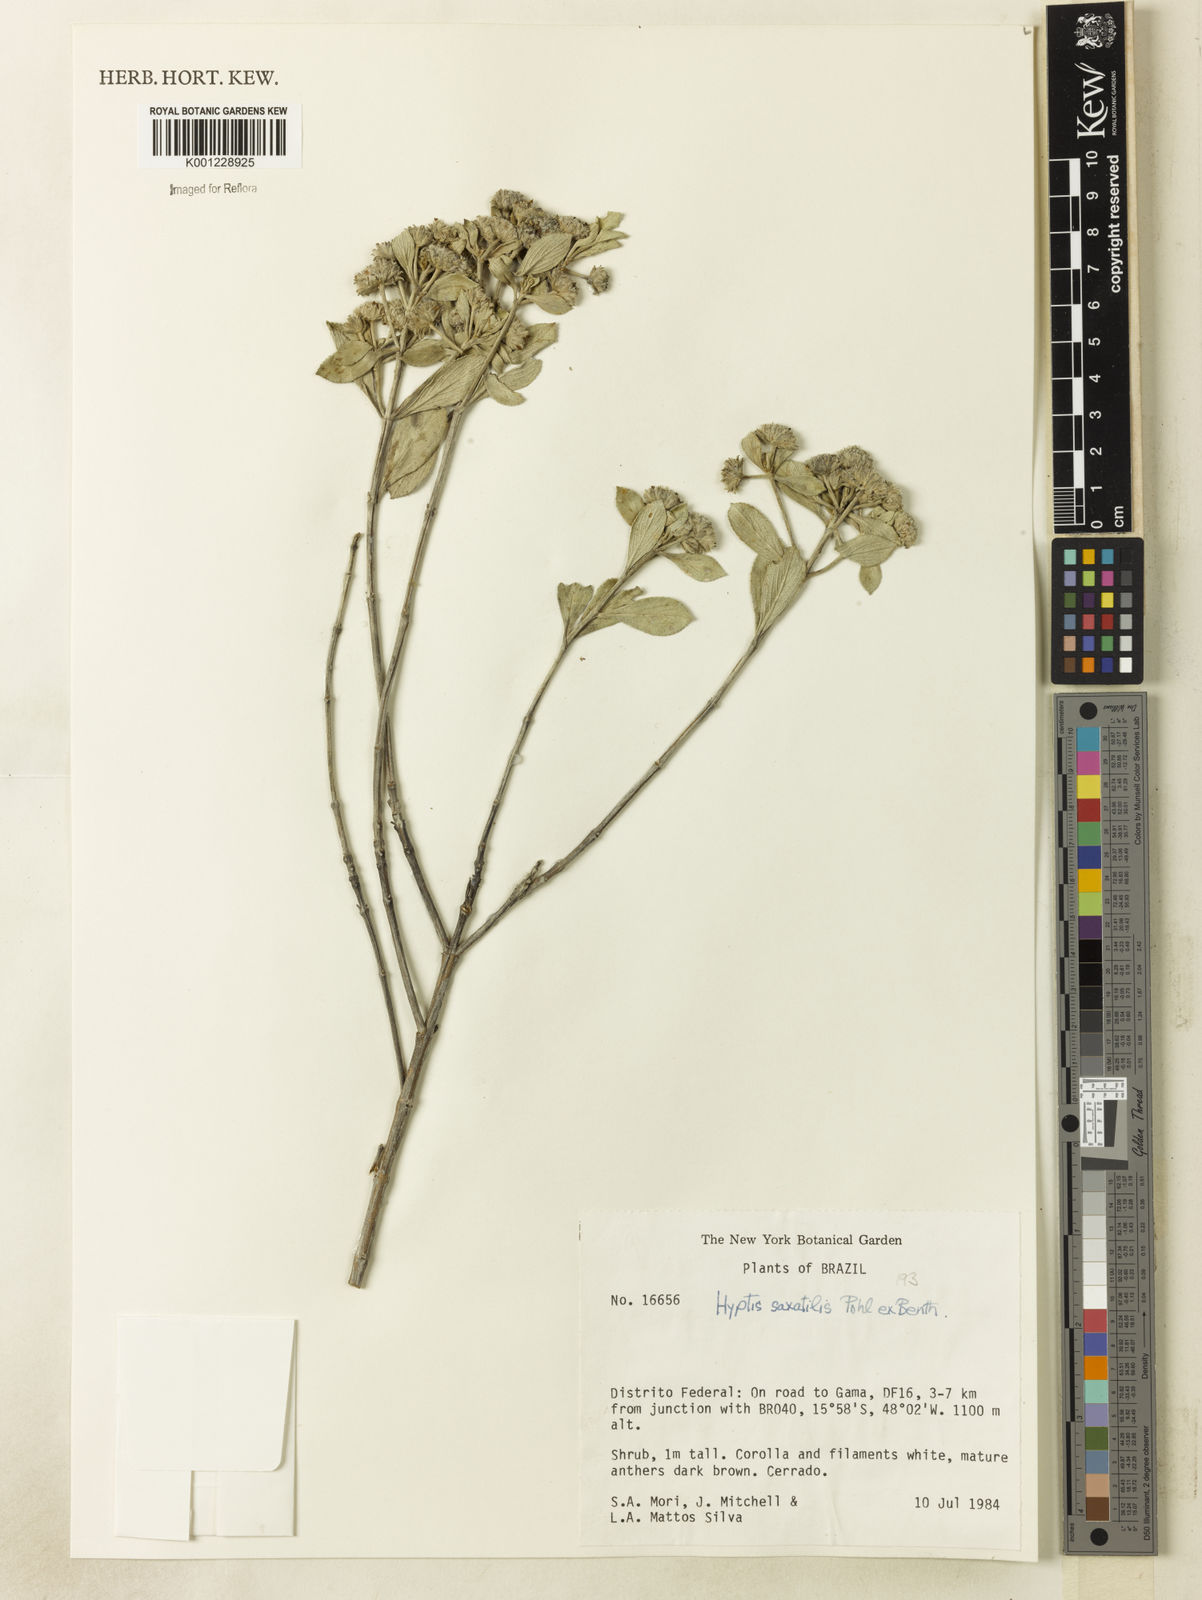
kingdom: Plantae
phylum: Tracheophyta
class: Magnoliopsida
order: Lamiales
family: Lamiaceae
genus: Hyptis
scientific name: Hyptis saxatilis
